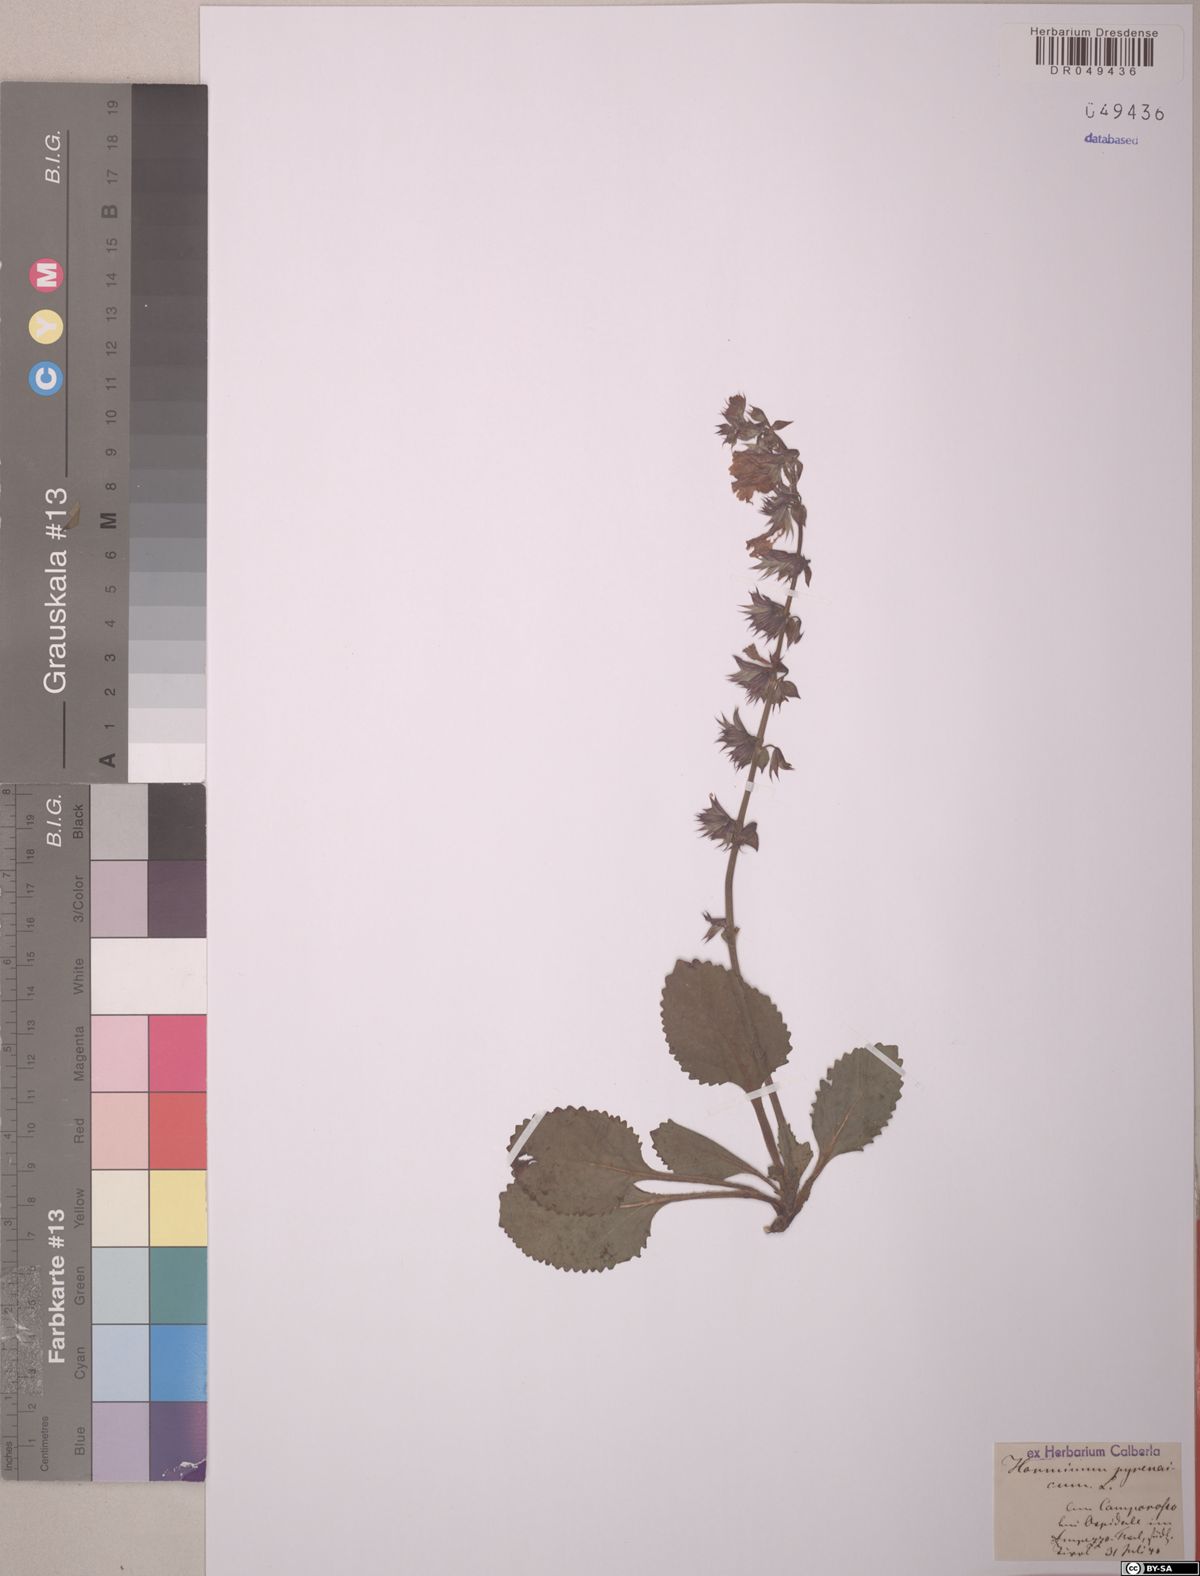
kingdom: Plantae
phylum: Tracheophyta
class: Magnoliopsida
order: Lamiales
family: Lamiaceae
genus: Horminum
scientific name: Horminum pyrenaicum
